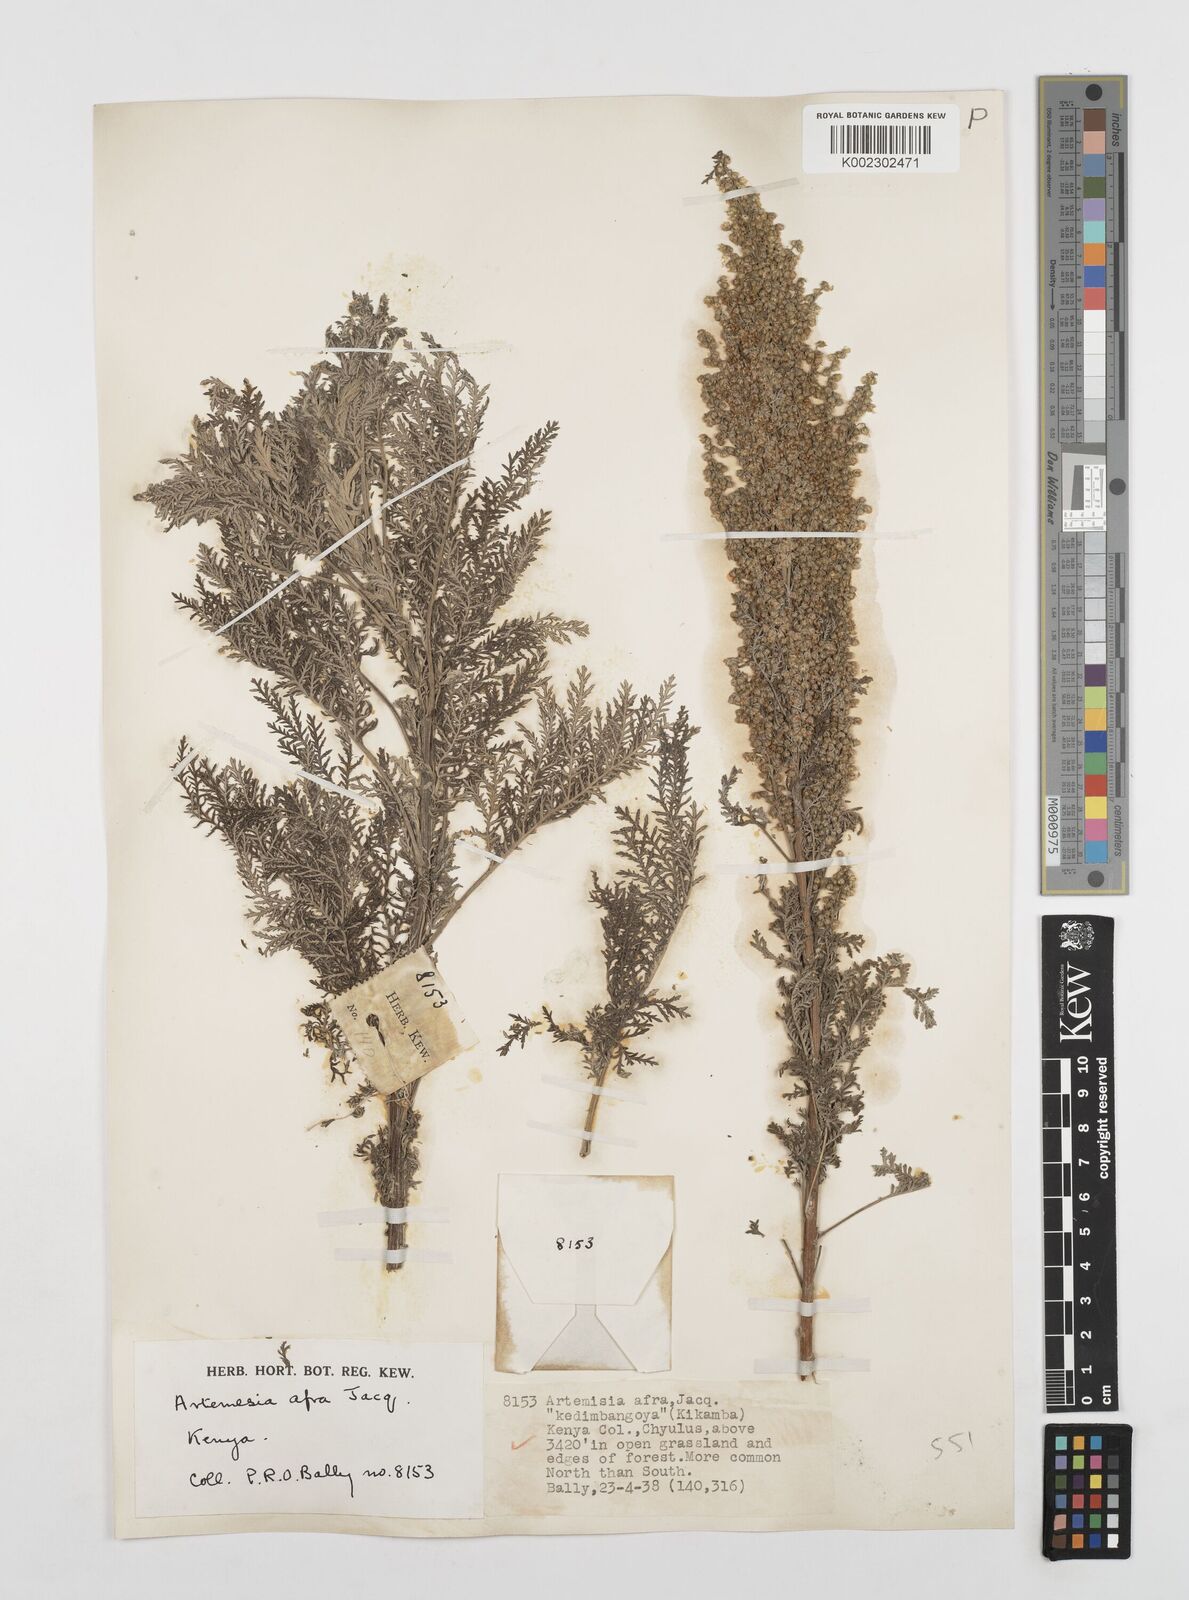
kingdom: Plantae
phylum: Tracheophyta
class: Magnoliopsida
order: Asterales
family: Asteraceae
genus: Artemisia
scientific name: Artemisia afra
